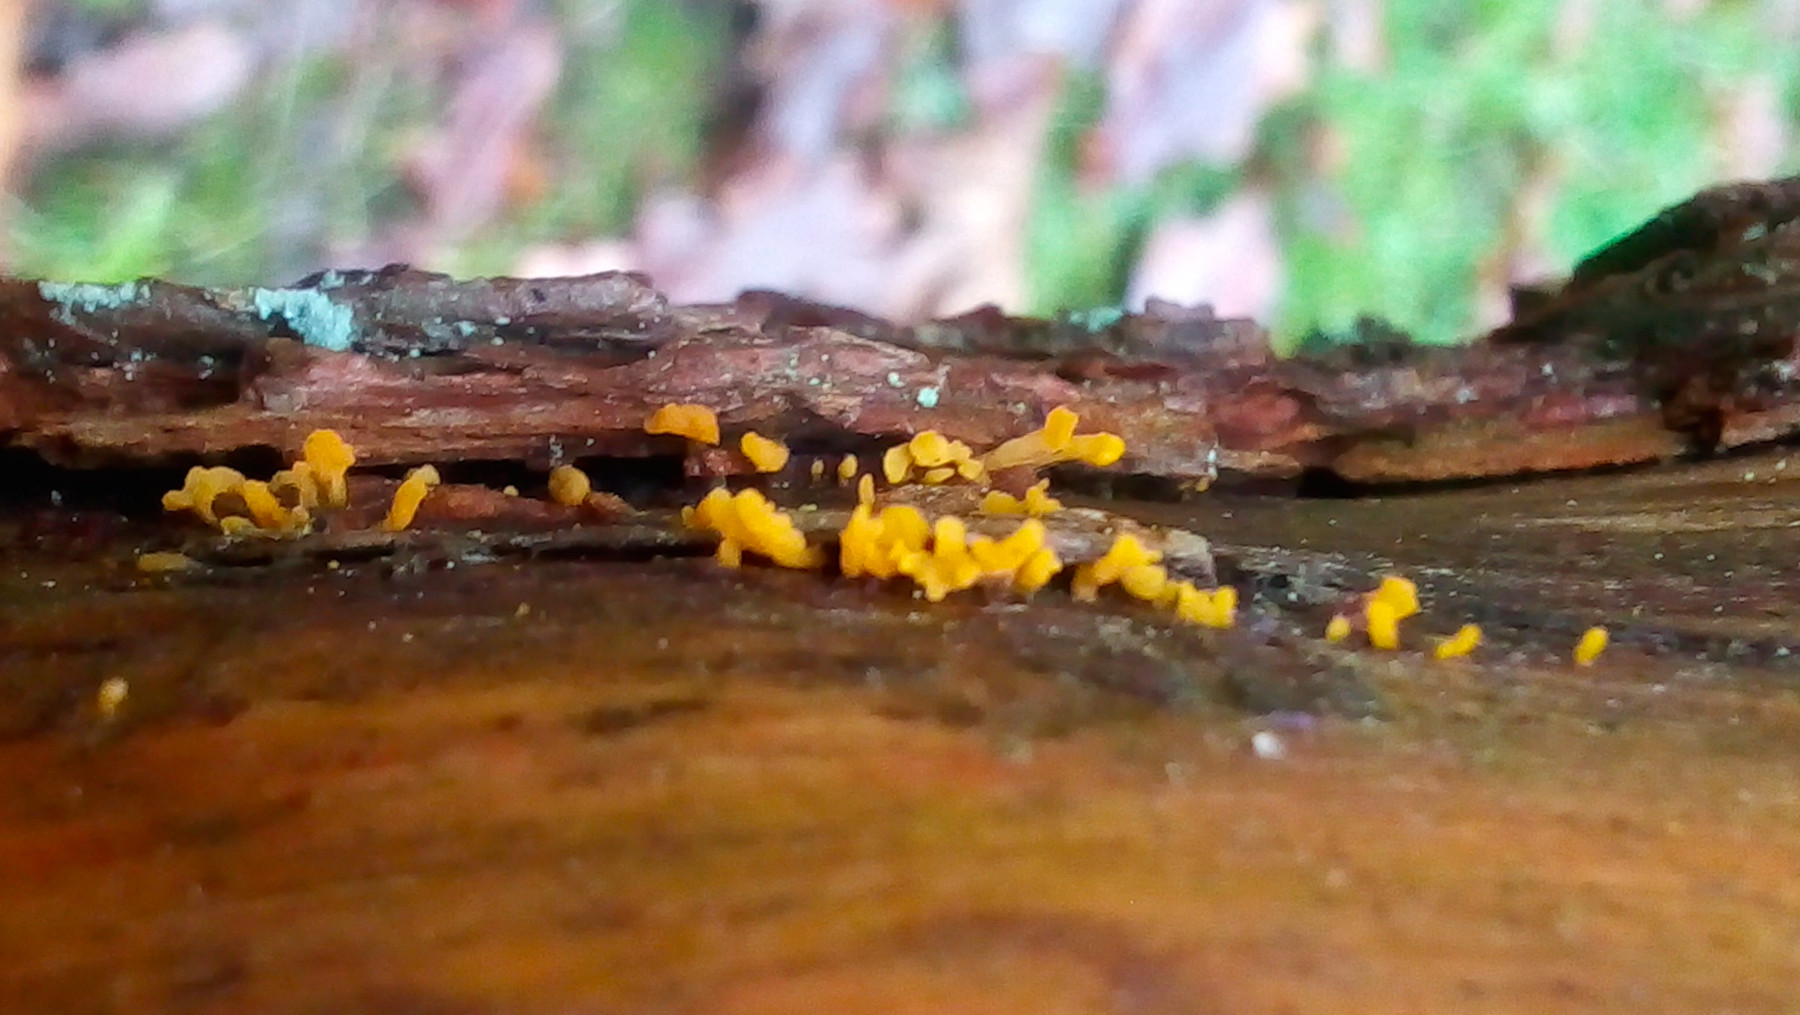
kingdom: Fungi
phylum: Basidiomycota
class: Dacrymycetes
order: Dacrymycetales
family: Dacrymycetaceae
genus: Calocera
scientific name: Calocera furcata
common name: fyrre-guldgaffel
